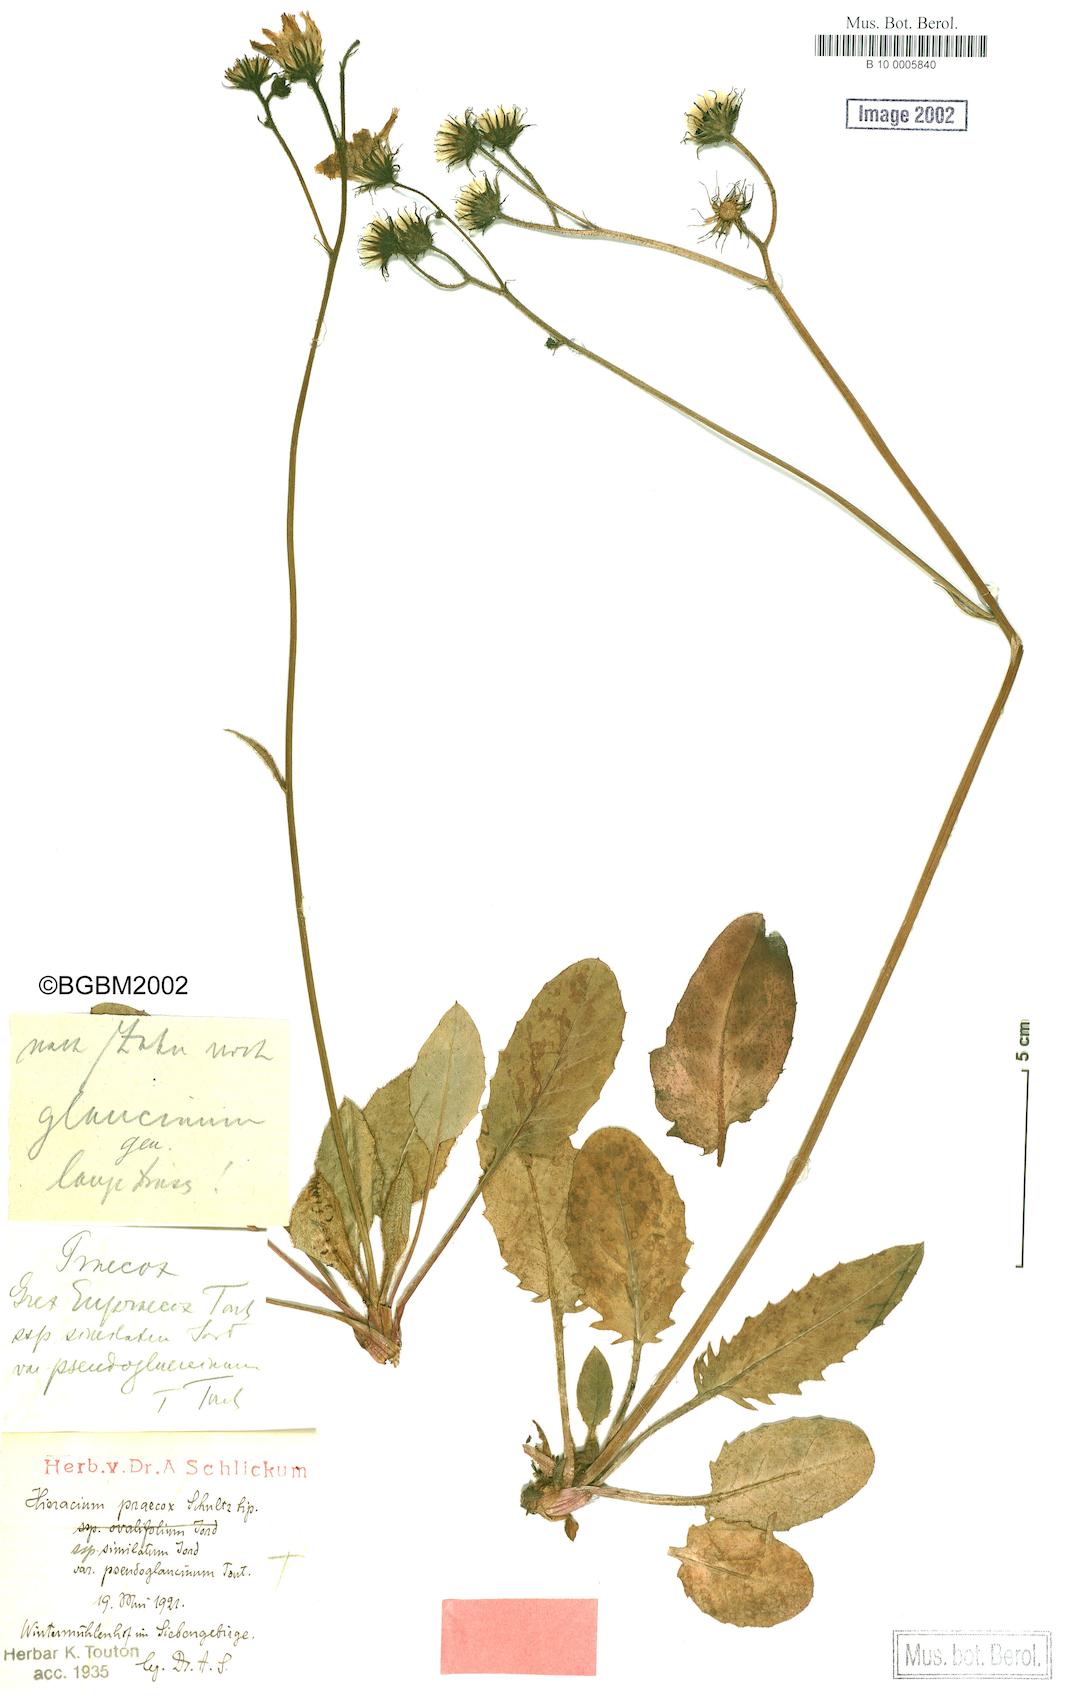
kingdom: Plantae
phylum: Tracheophyta
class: Magnoliopsida
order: Asterales
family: Asteraceae
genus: Hieracium
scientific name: Hieracium praecox
